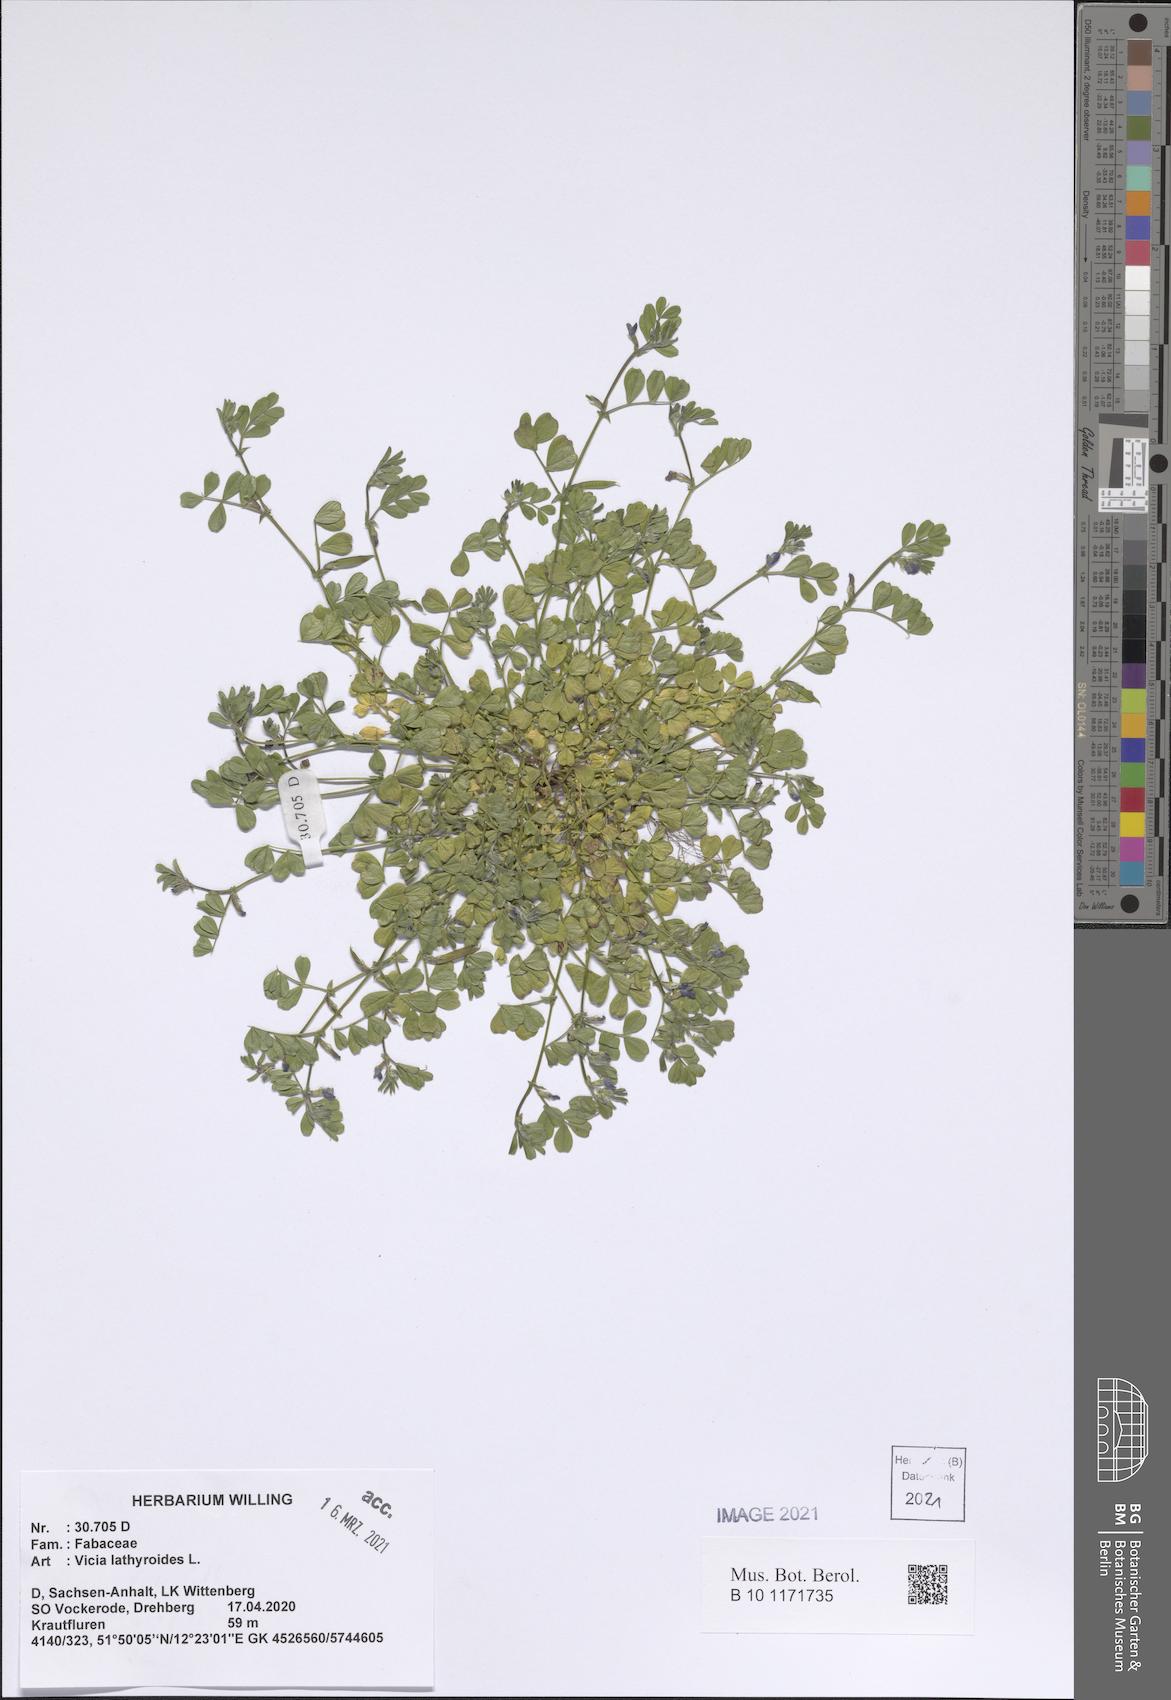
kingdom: Plantae
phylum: Tracheophyta
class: Magnoliopsida
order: Fabales
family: Fabaceae
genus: Vicia
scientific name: Vicia lathyroides
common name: Spring vetch
